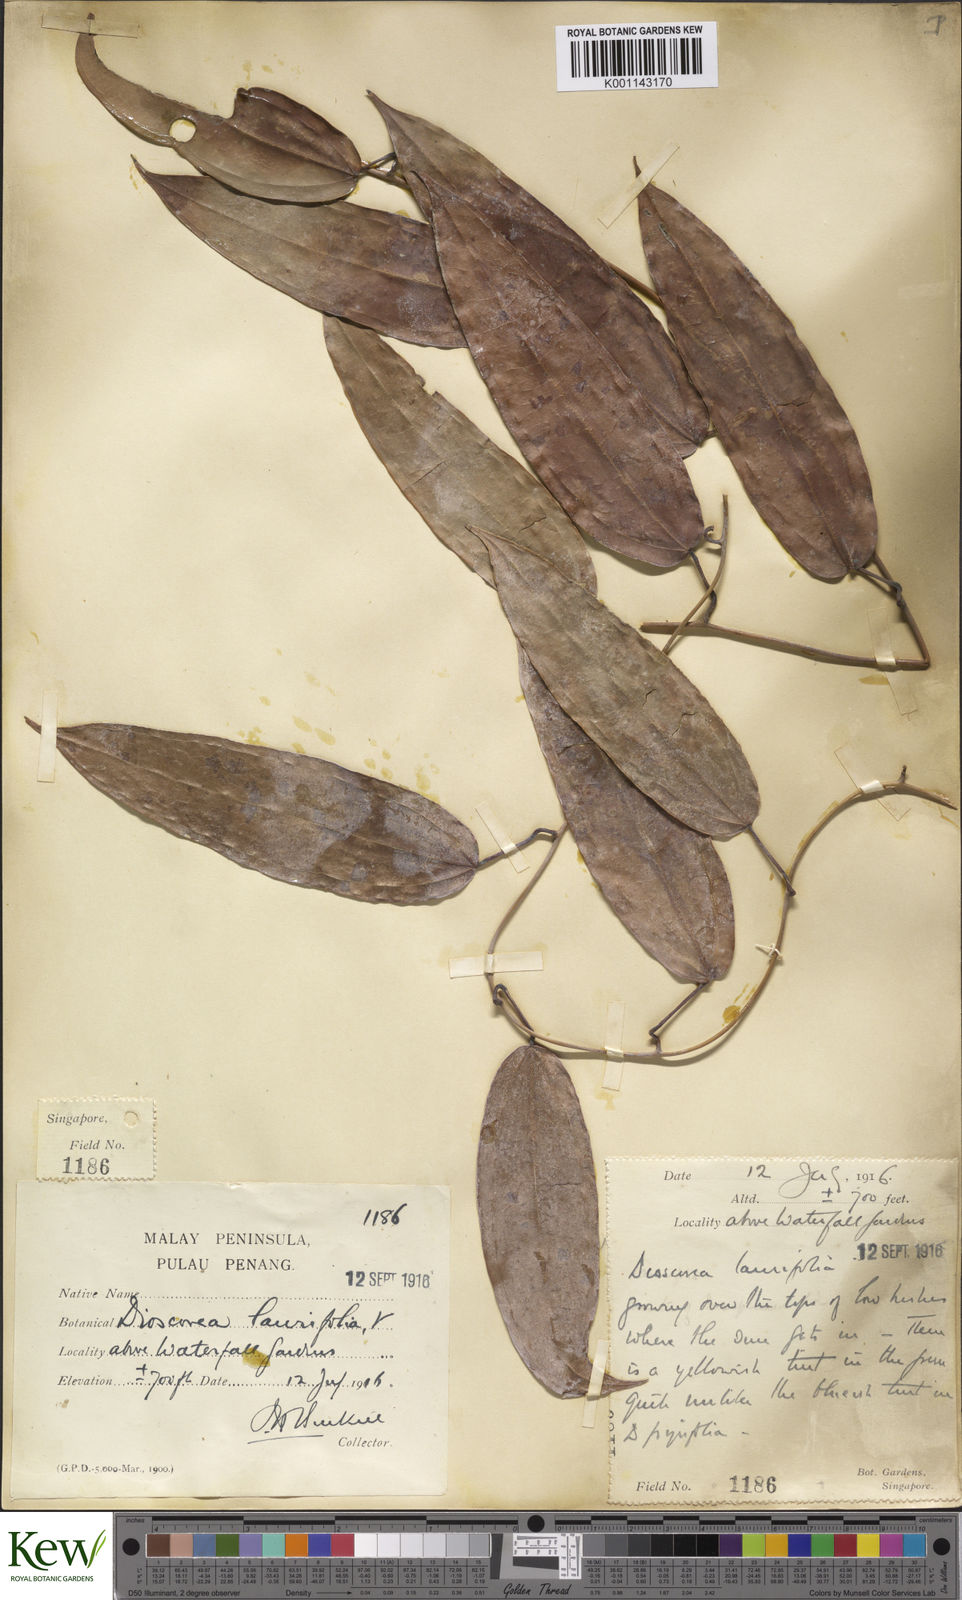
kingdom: Plantae
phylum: Tracheophyta
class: Liliopsida
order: Dioscoreales
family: Dioscoreaceae
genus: Dioscorea
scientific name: Dioscorea laurifolia
